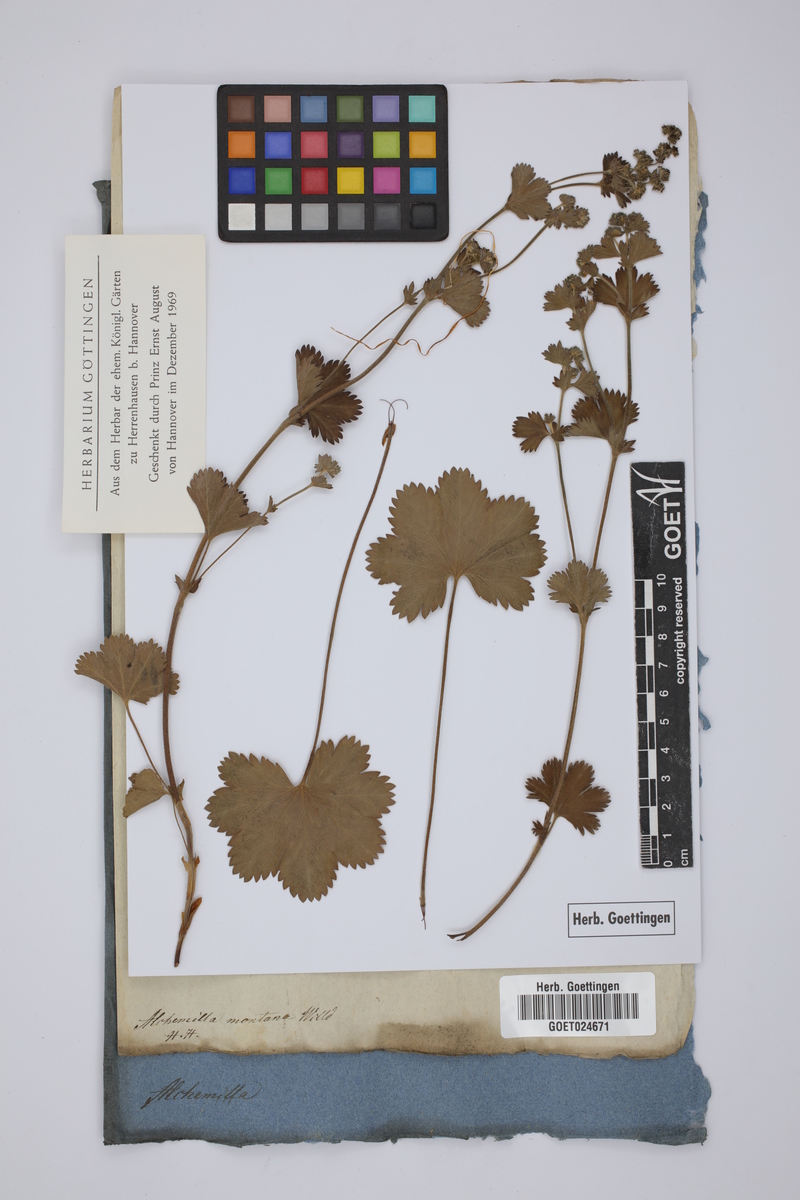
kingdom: Plantae
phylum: Tracheophyta
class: Magnoliopsida
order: Rosales
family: Rosaceae
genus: Alchemilla
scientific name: Alchemilla glaucescens
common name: Silky lady's mantle
